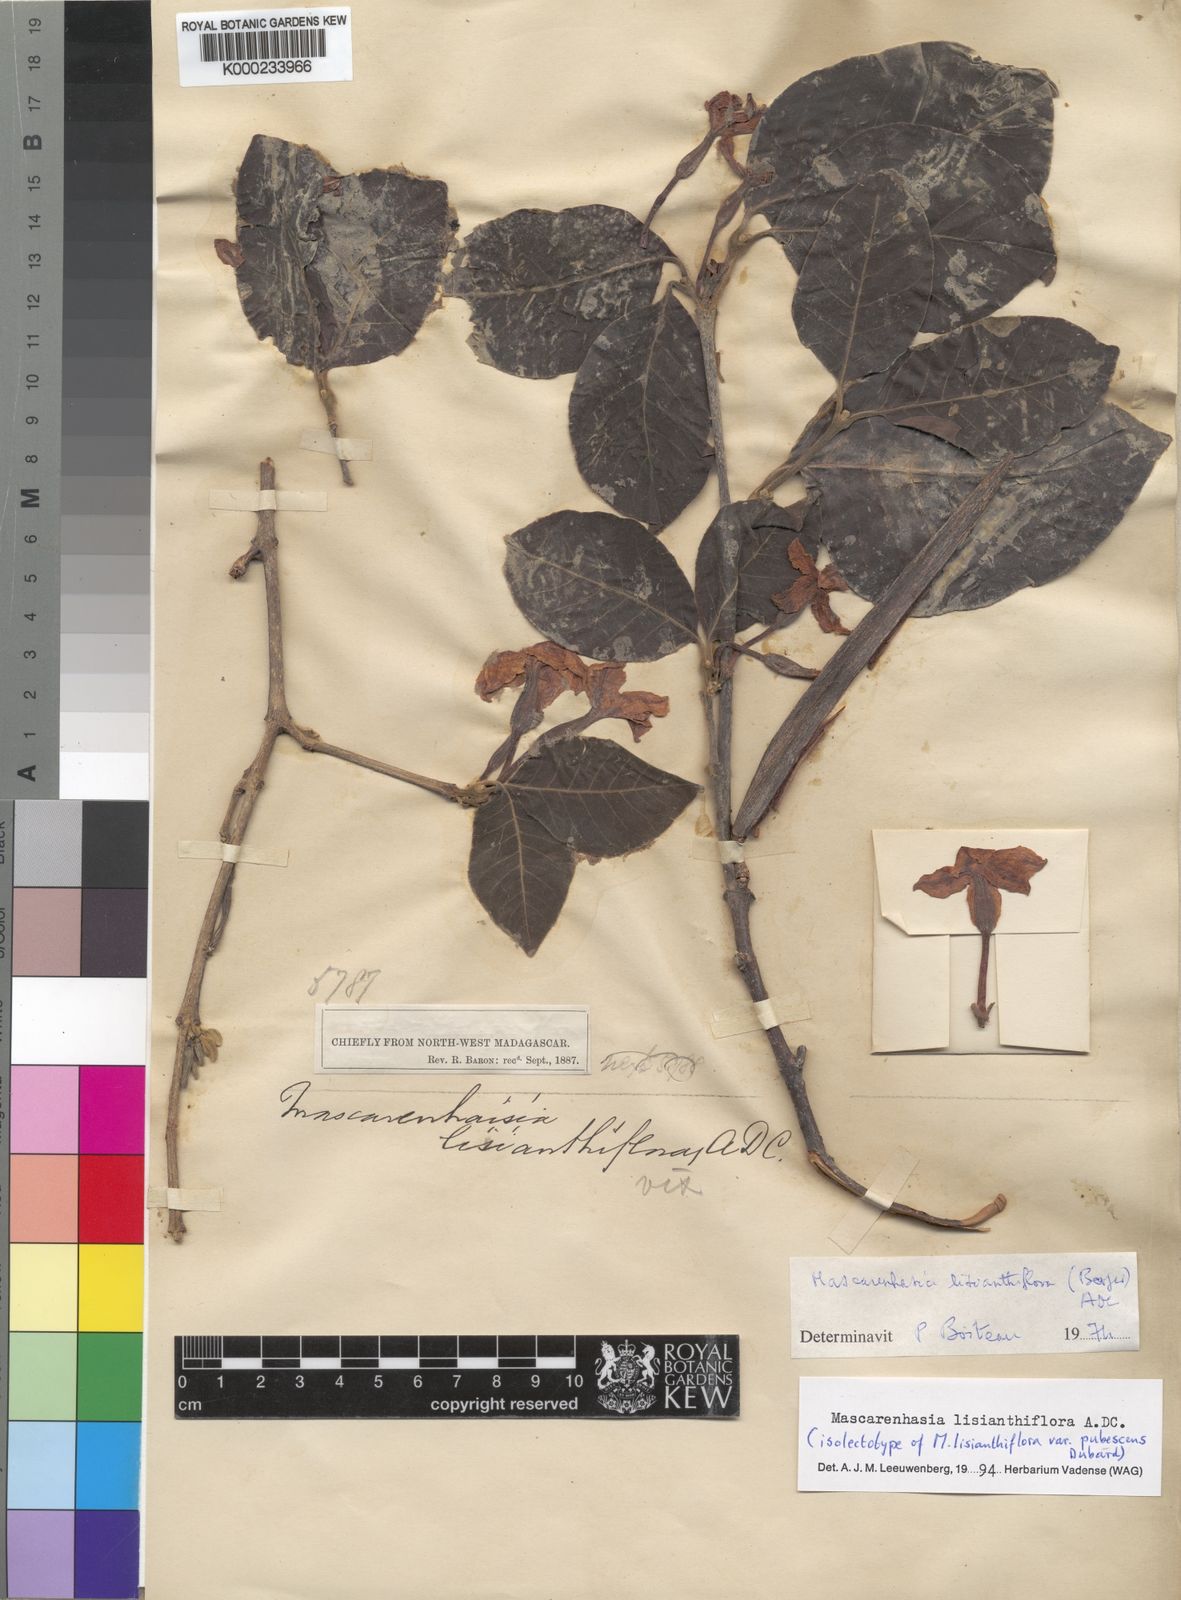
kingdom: Plantae
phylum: Tracheophyta
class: Magnoliopsida
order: Gentianales
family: Apocynaceae
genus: Mascarenhasia
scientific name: Mascarenhasia lisianthiflora
